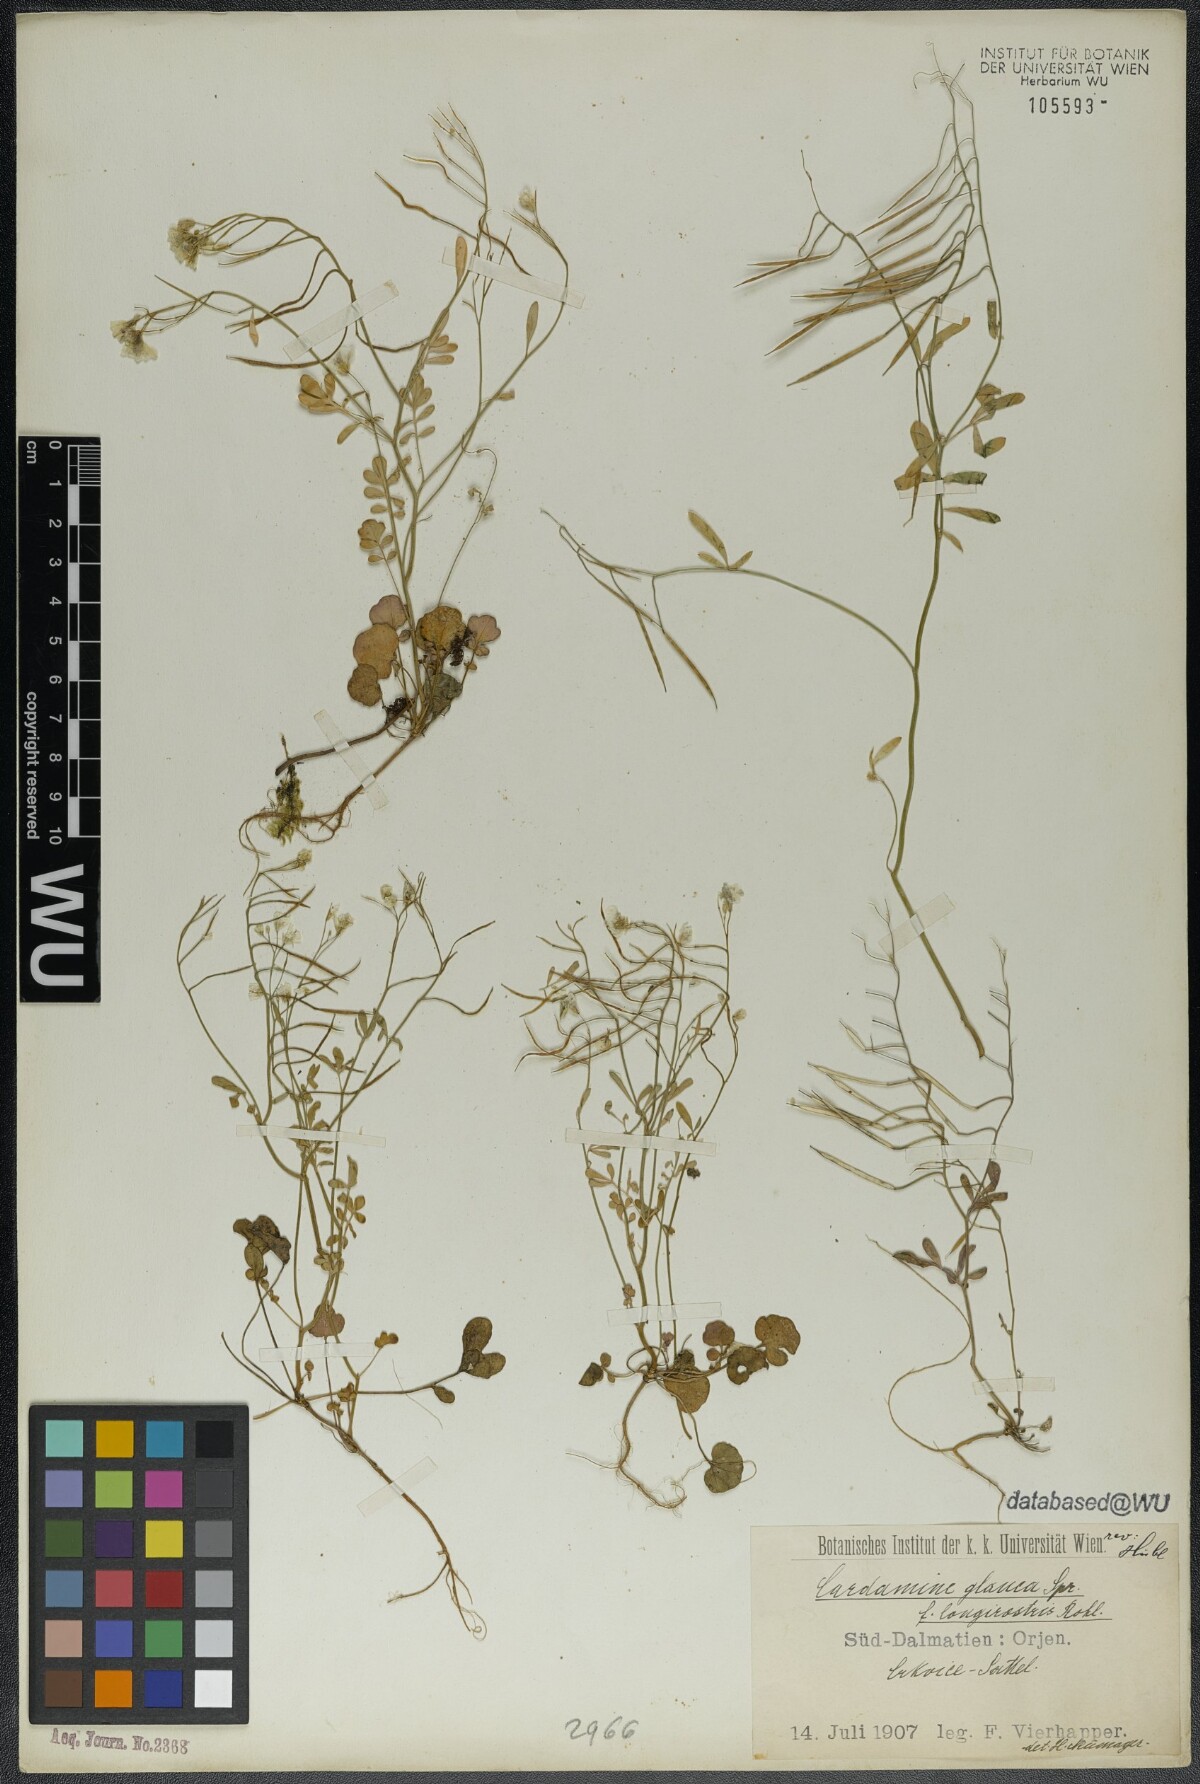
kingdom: Plantae
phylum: Tracheophyta
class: Magnoliopsida
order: Brassicales
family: Brassicaceae
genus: Cardamine
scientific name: Cardamine glauca
